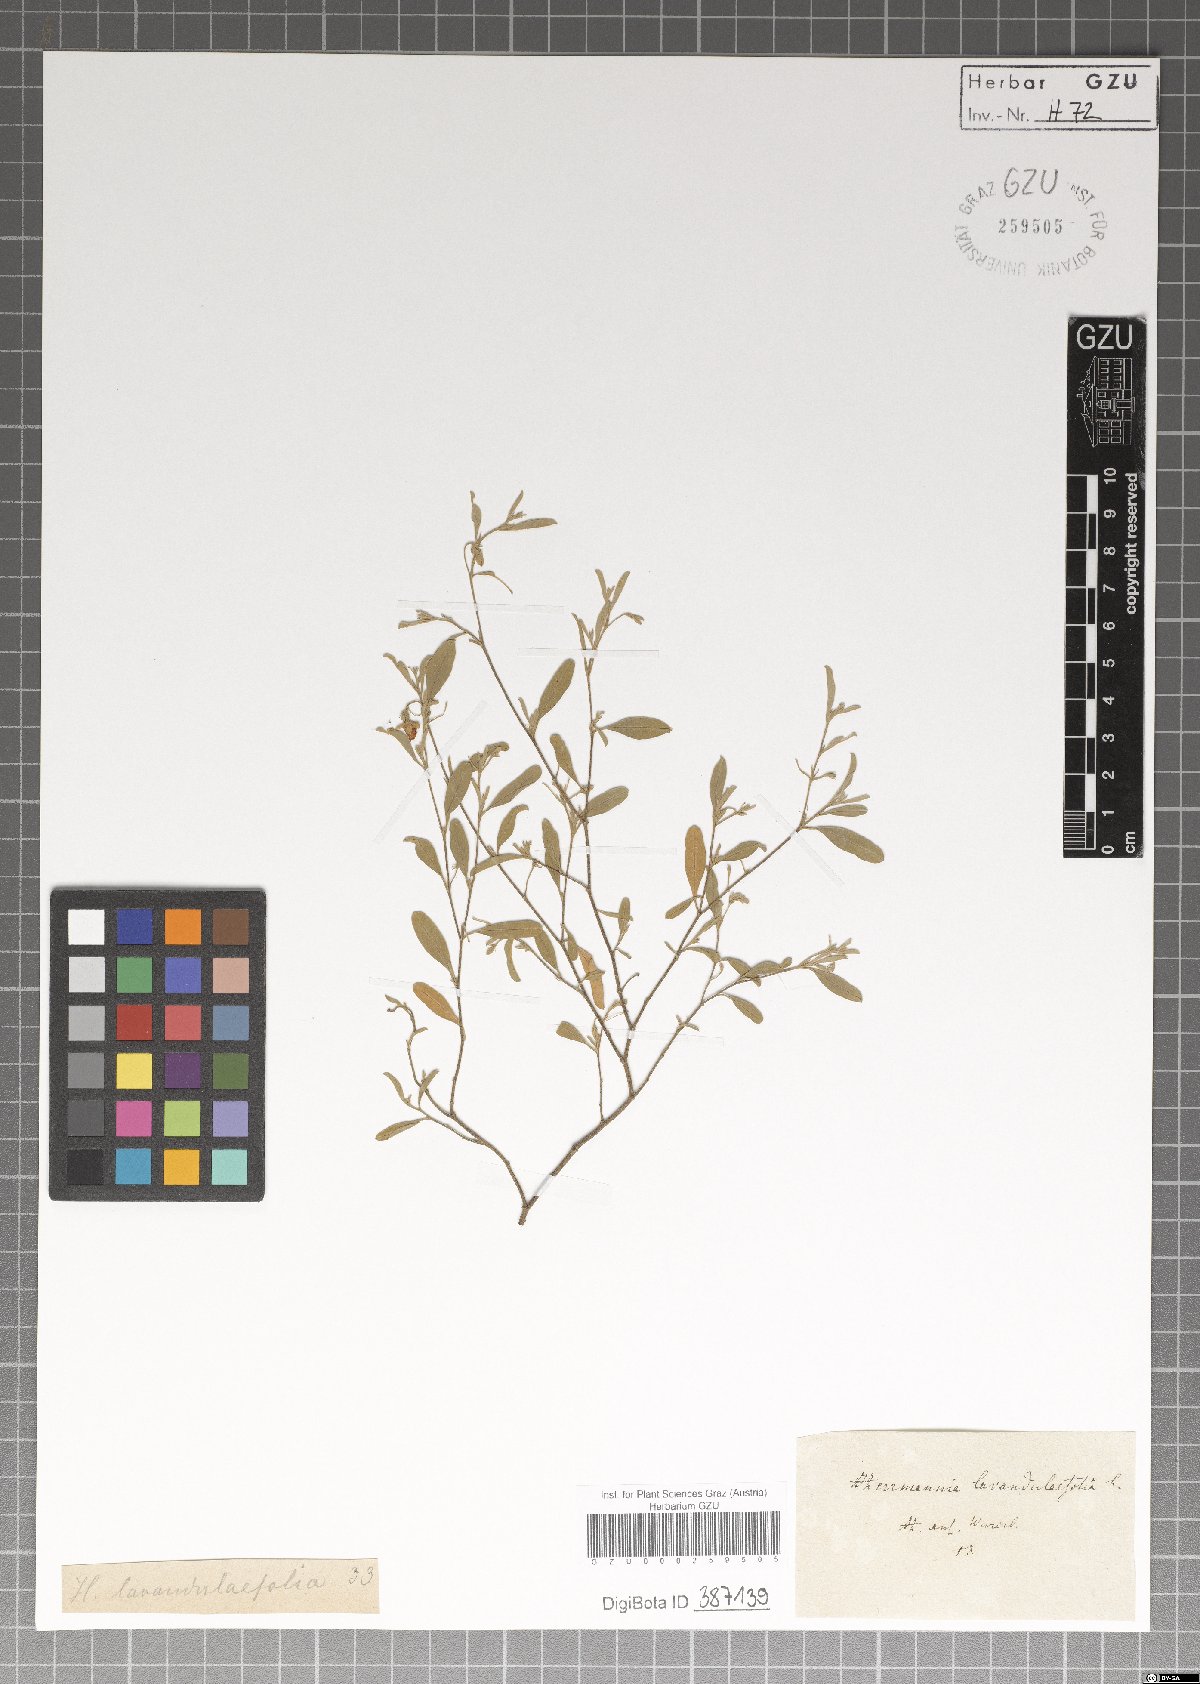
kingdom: Plantae
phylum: Tracheophyta
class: Magnoliopsida
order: Malvales
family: Malvaceae
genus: Hermannia
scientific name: Hermannia lavandulifolia
